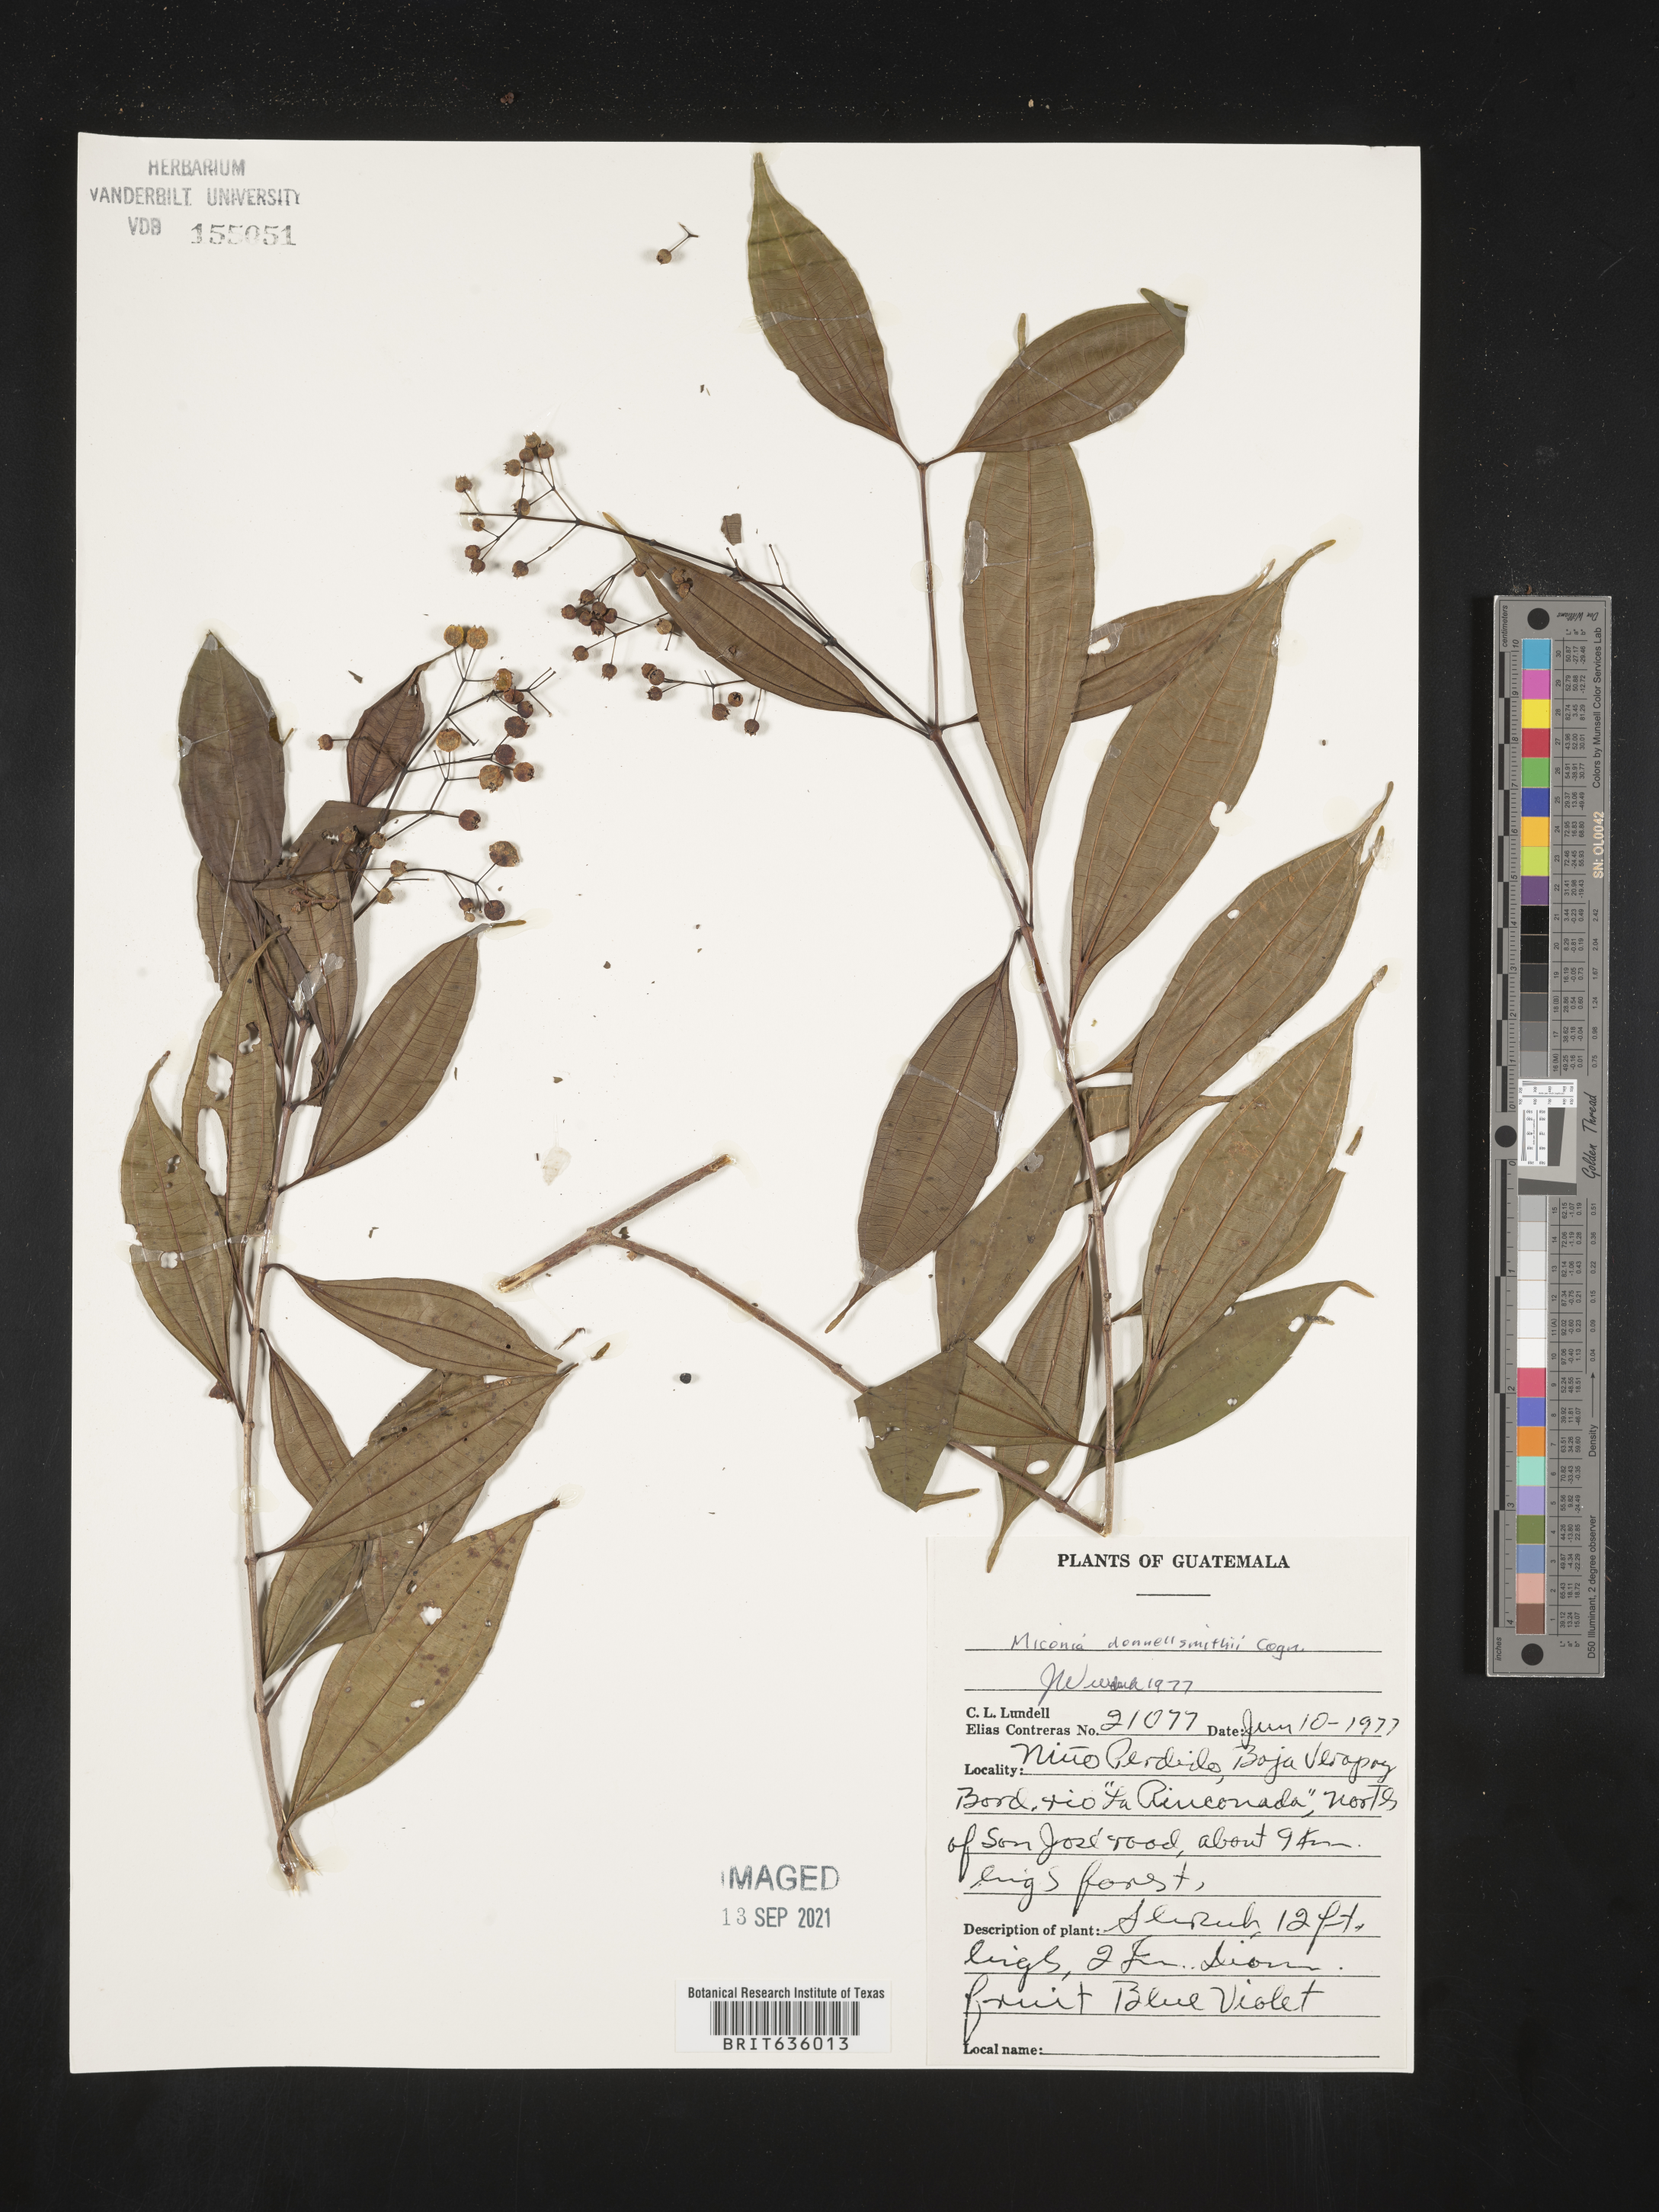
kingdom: Plantae
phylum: Tracheophyta
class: Magnoliopsida
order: Myrtales
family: Melastomataceae
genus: Miconia
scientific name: Miconia
